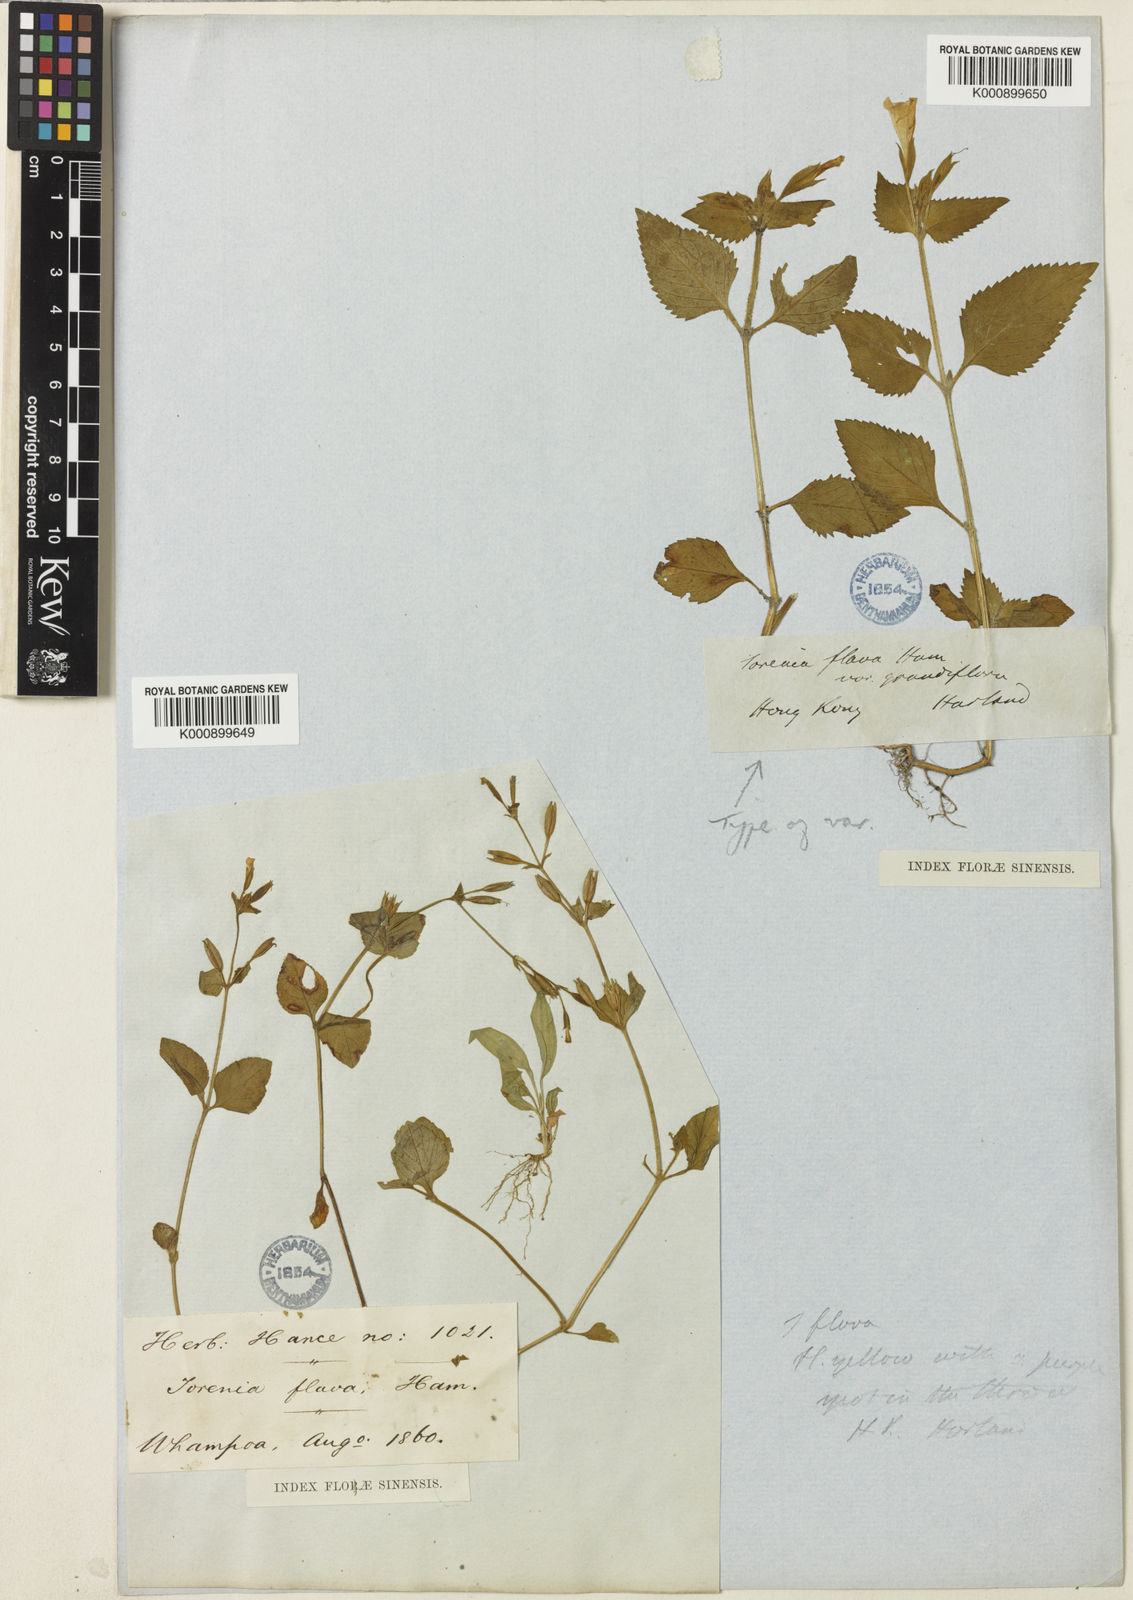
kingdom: Plantae
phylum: Tracheophyta
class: Magnoliopsida
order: Lamiales
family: Linderniaceae
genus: Torenia
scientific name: Torenia flava
